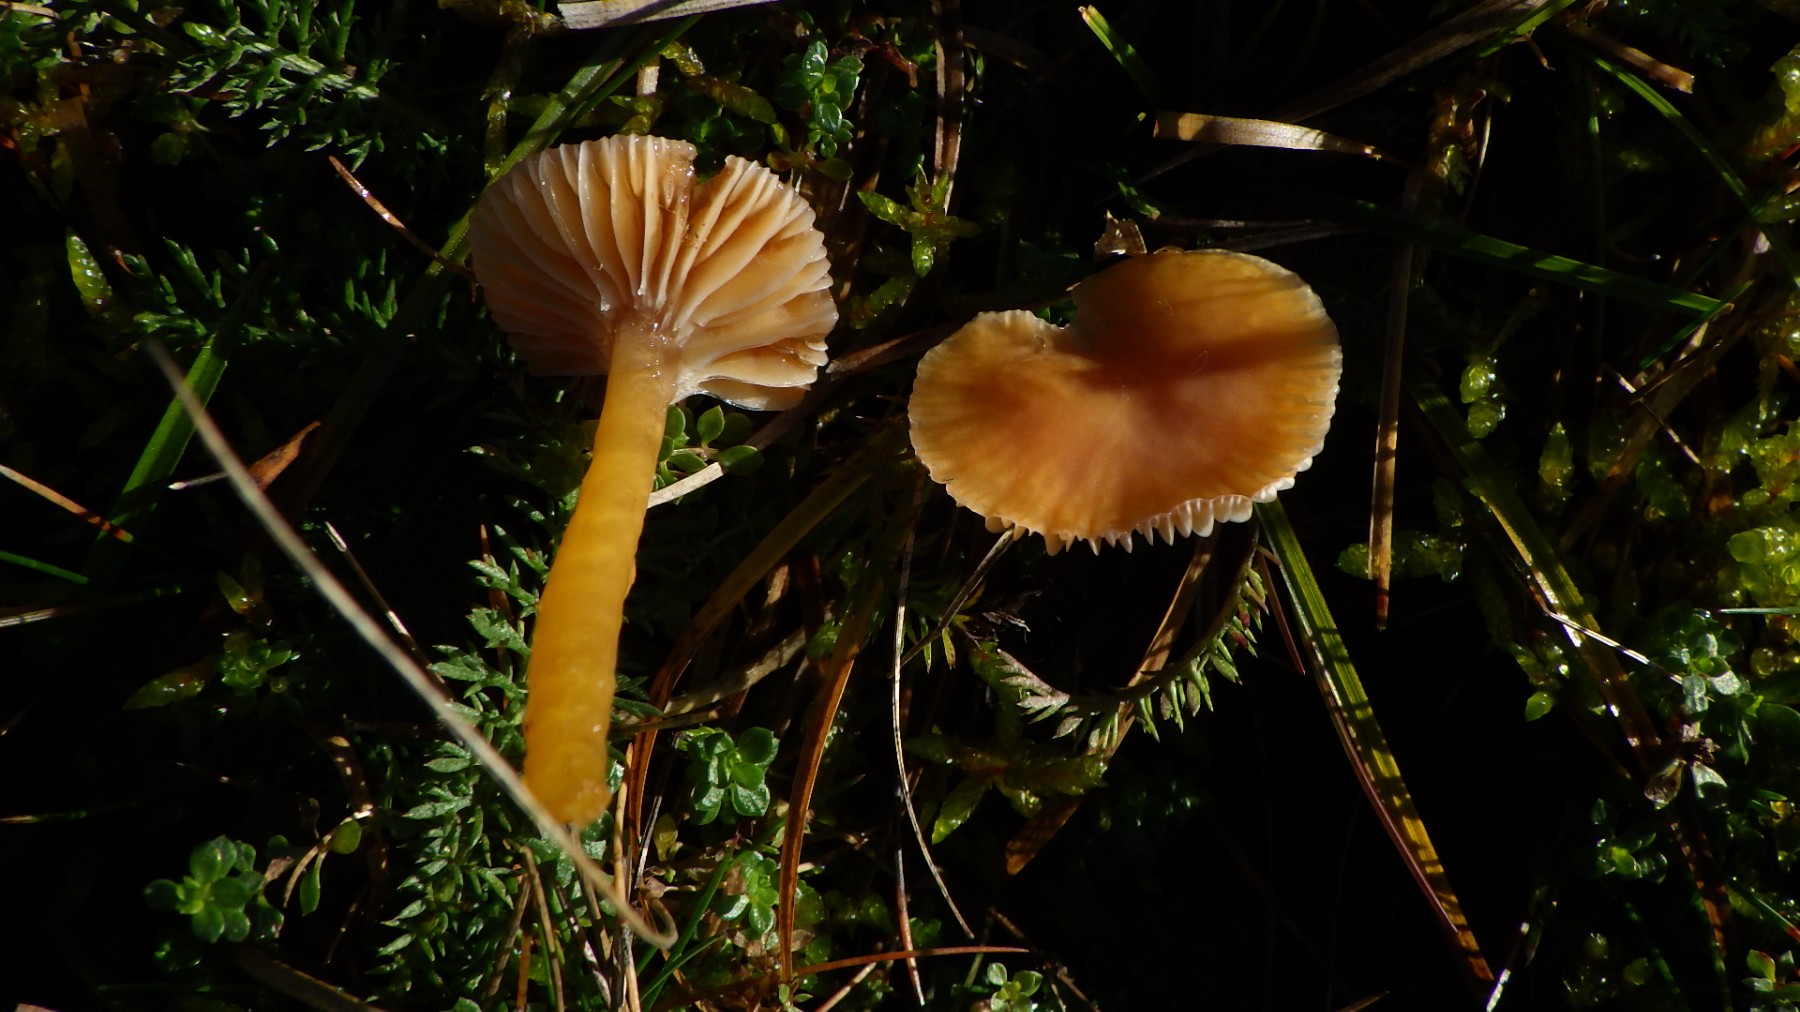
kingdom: Fungi
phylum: Basidiomycota
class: Agaricomycetes
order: Agaricales
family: Hygrophoraceae
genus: Gliophorus
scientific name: Gliophorus laetus
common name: brusk-vokshat
